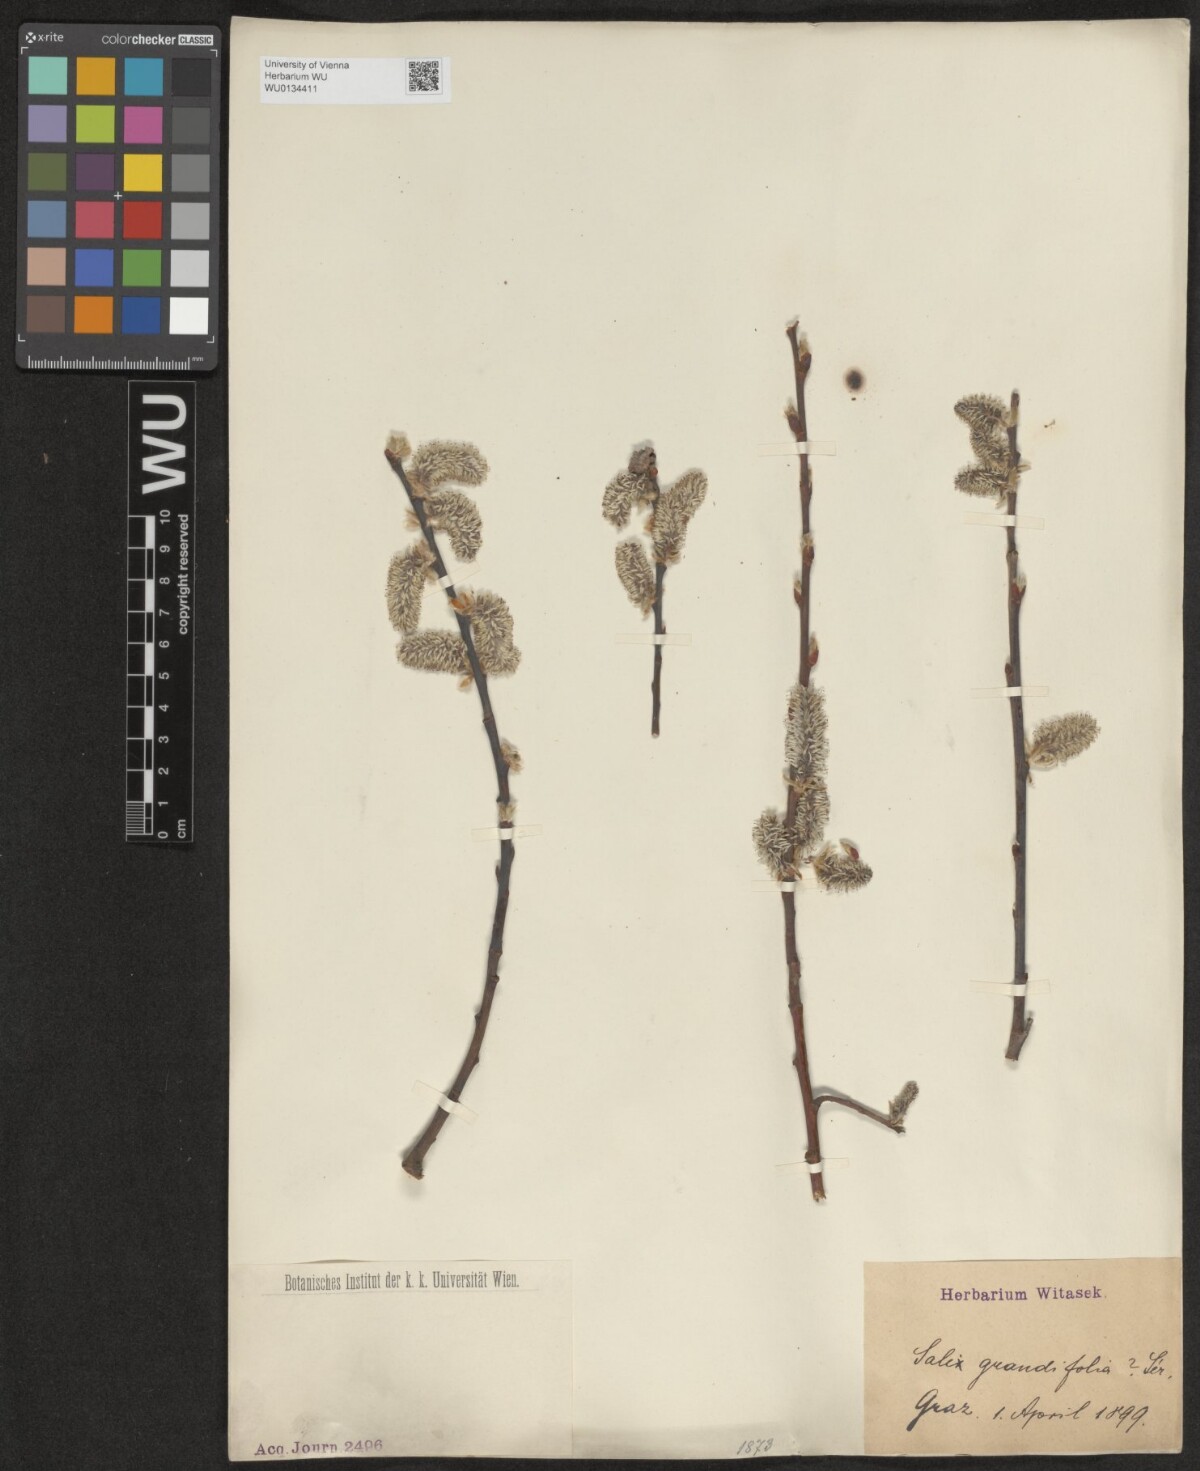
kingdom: Plantae
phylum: Tracheophyta
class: Magnoliopsida
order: Malpighiales
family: Salicaceae
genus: Salix
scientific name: Salix appendiculata
